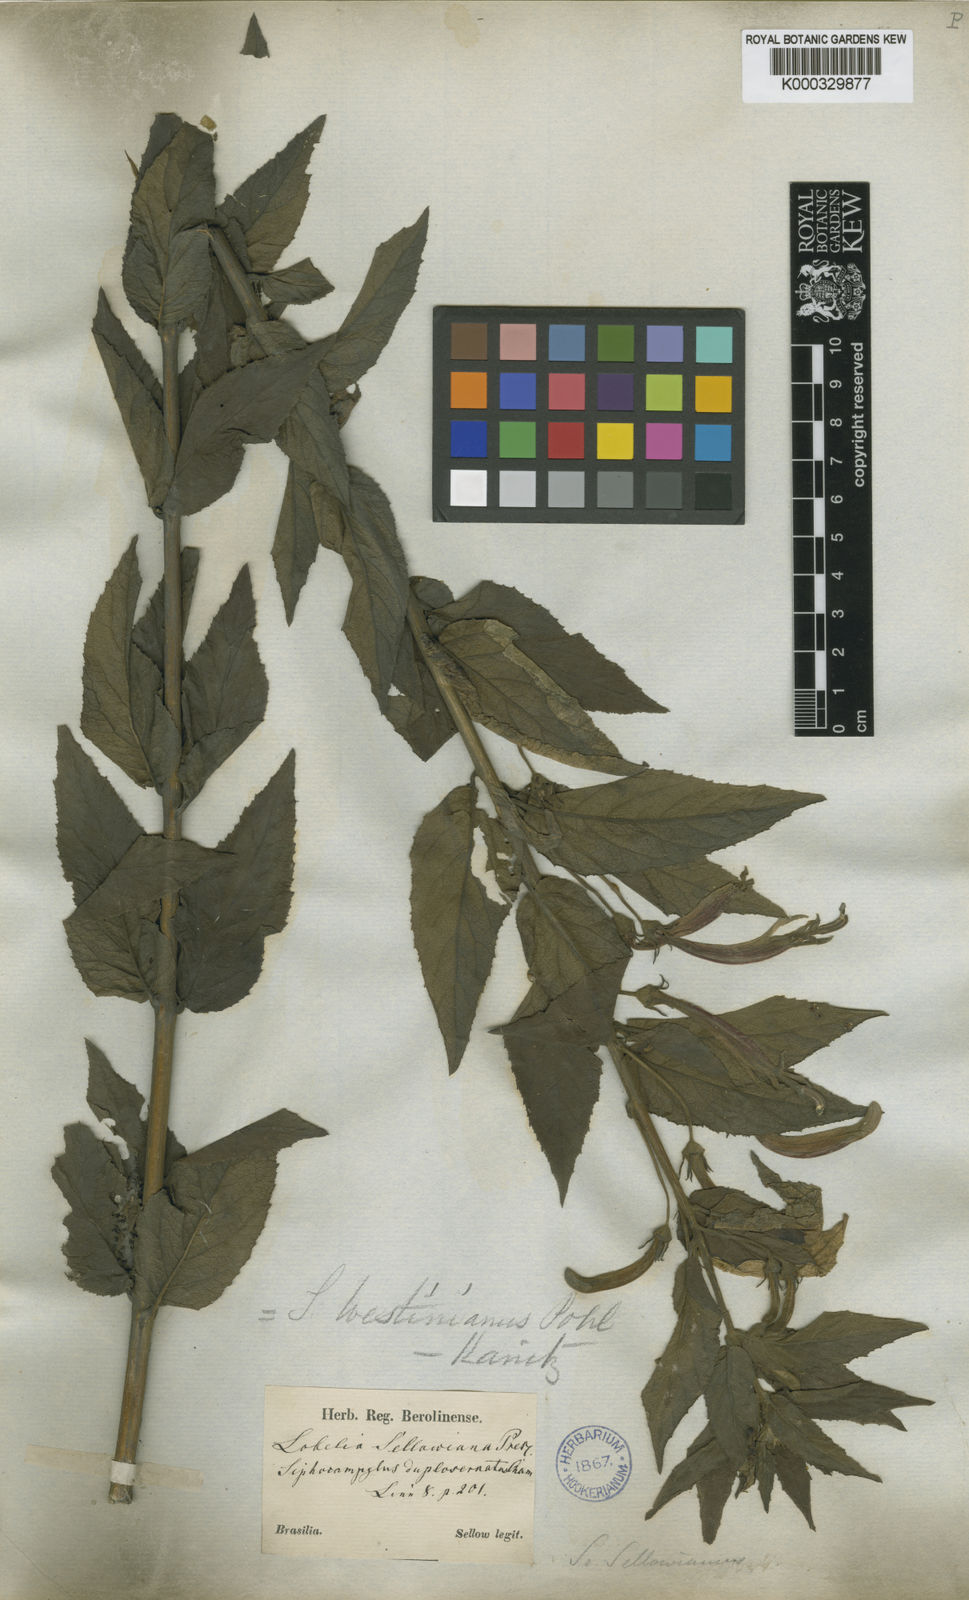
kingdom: Plantae
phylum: Tracheophyta
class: Magnoliopsida
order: Asterales
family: Campanulaceae
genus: Siphocampylus
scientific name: Siphocampylus westinianus
